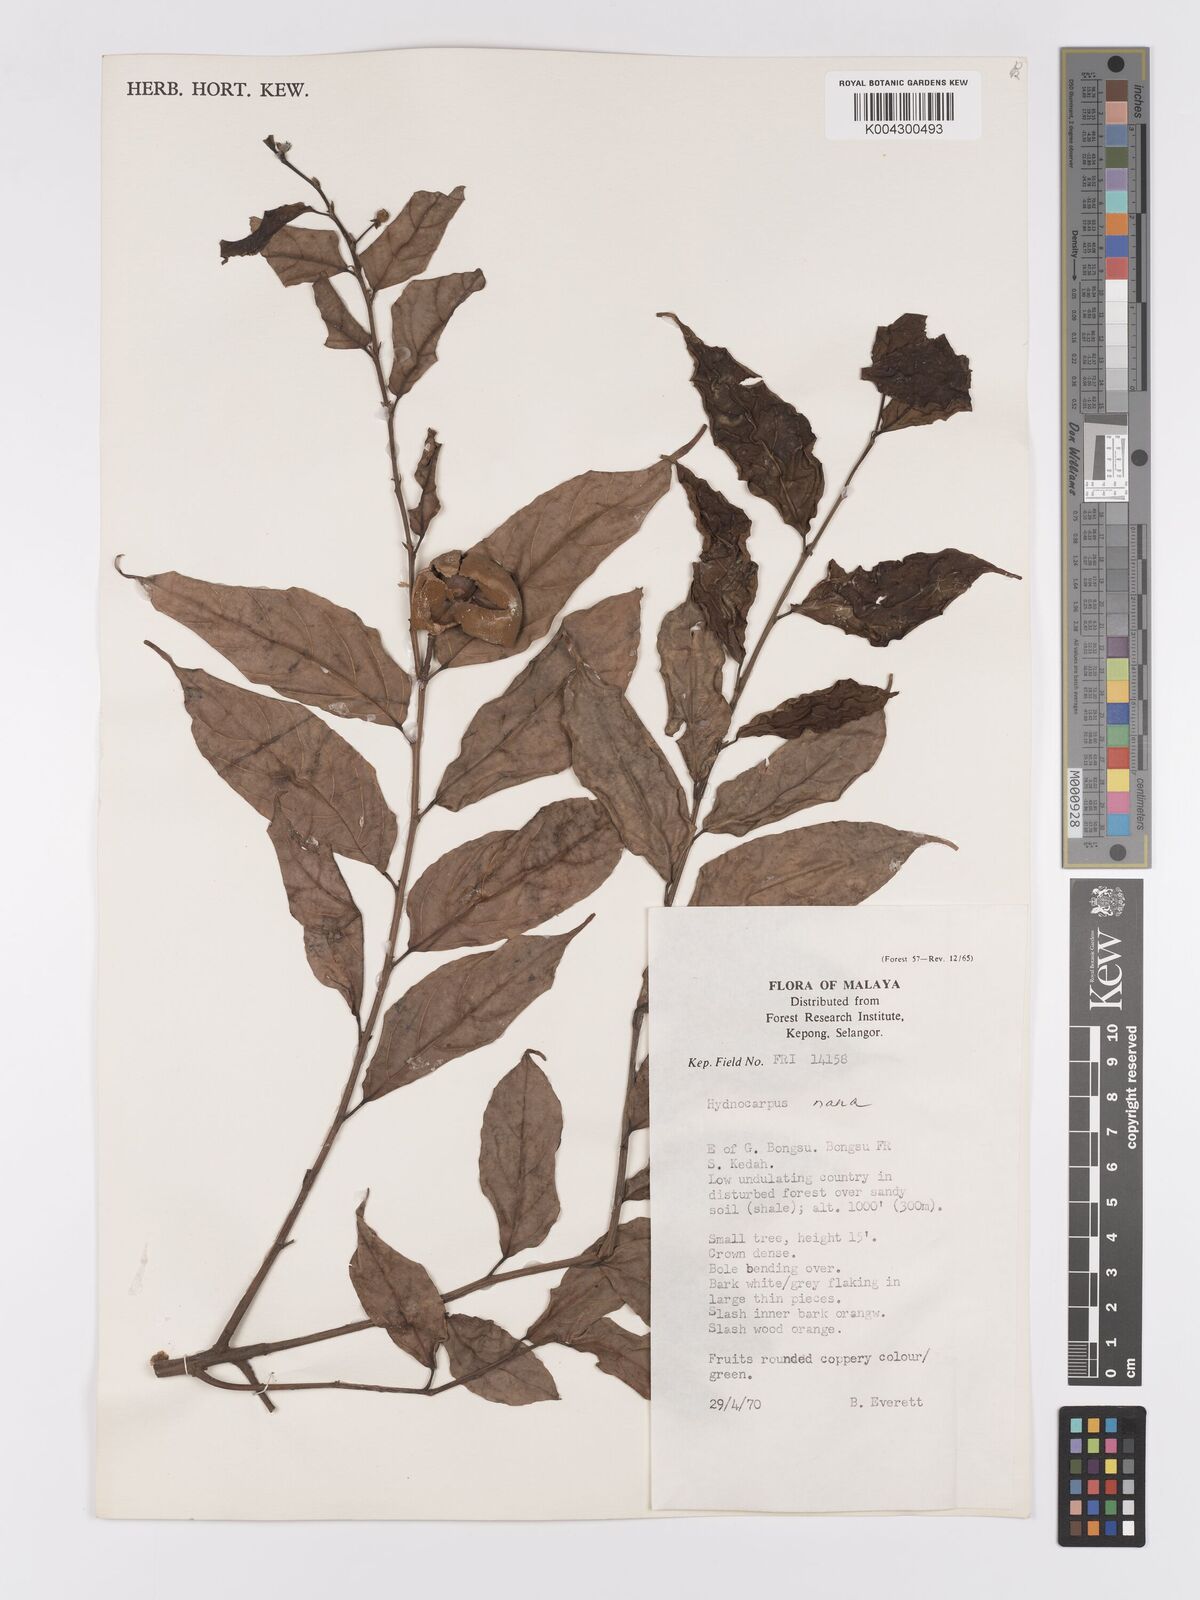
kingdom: Plantae
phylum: Tracheophyta
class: Magnoliopsida
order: Malpighiales
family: Achariaceae
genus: Hydnocarpus
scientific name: Hydnocarpus nanus
